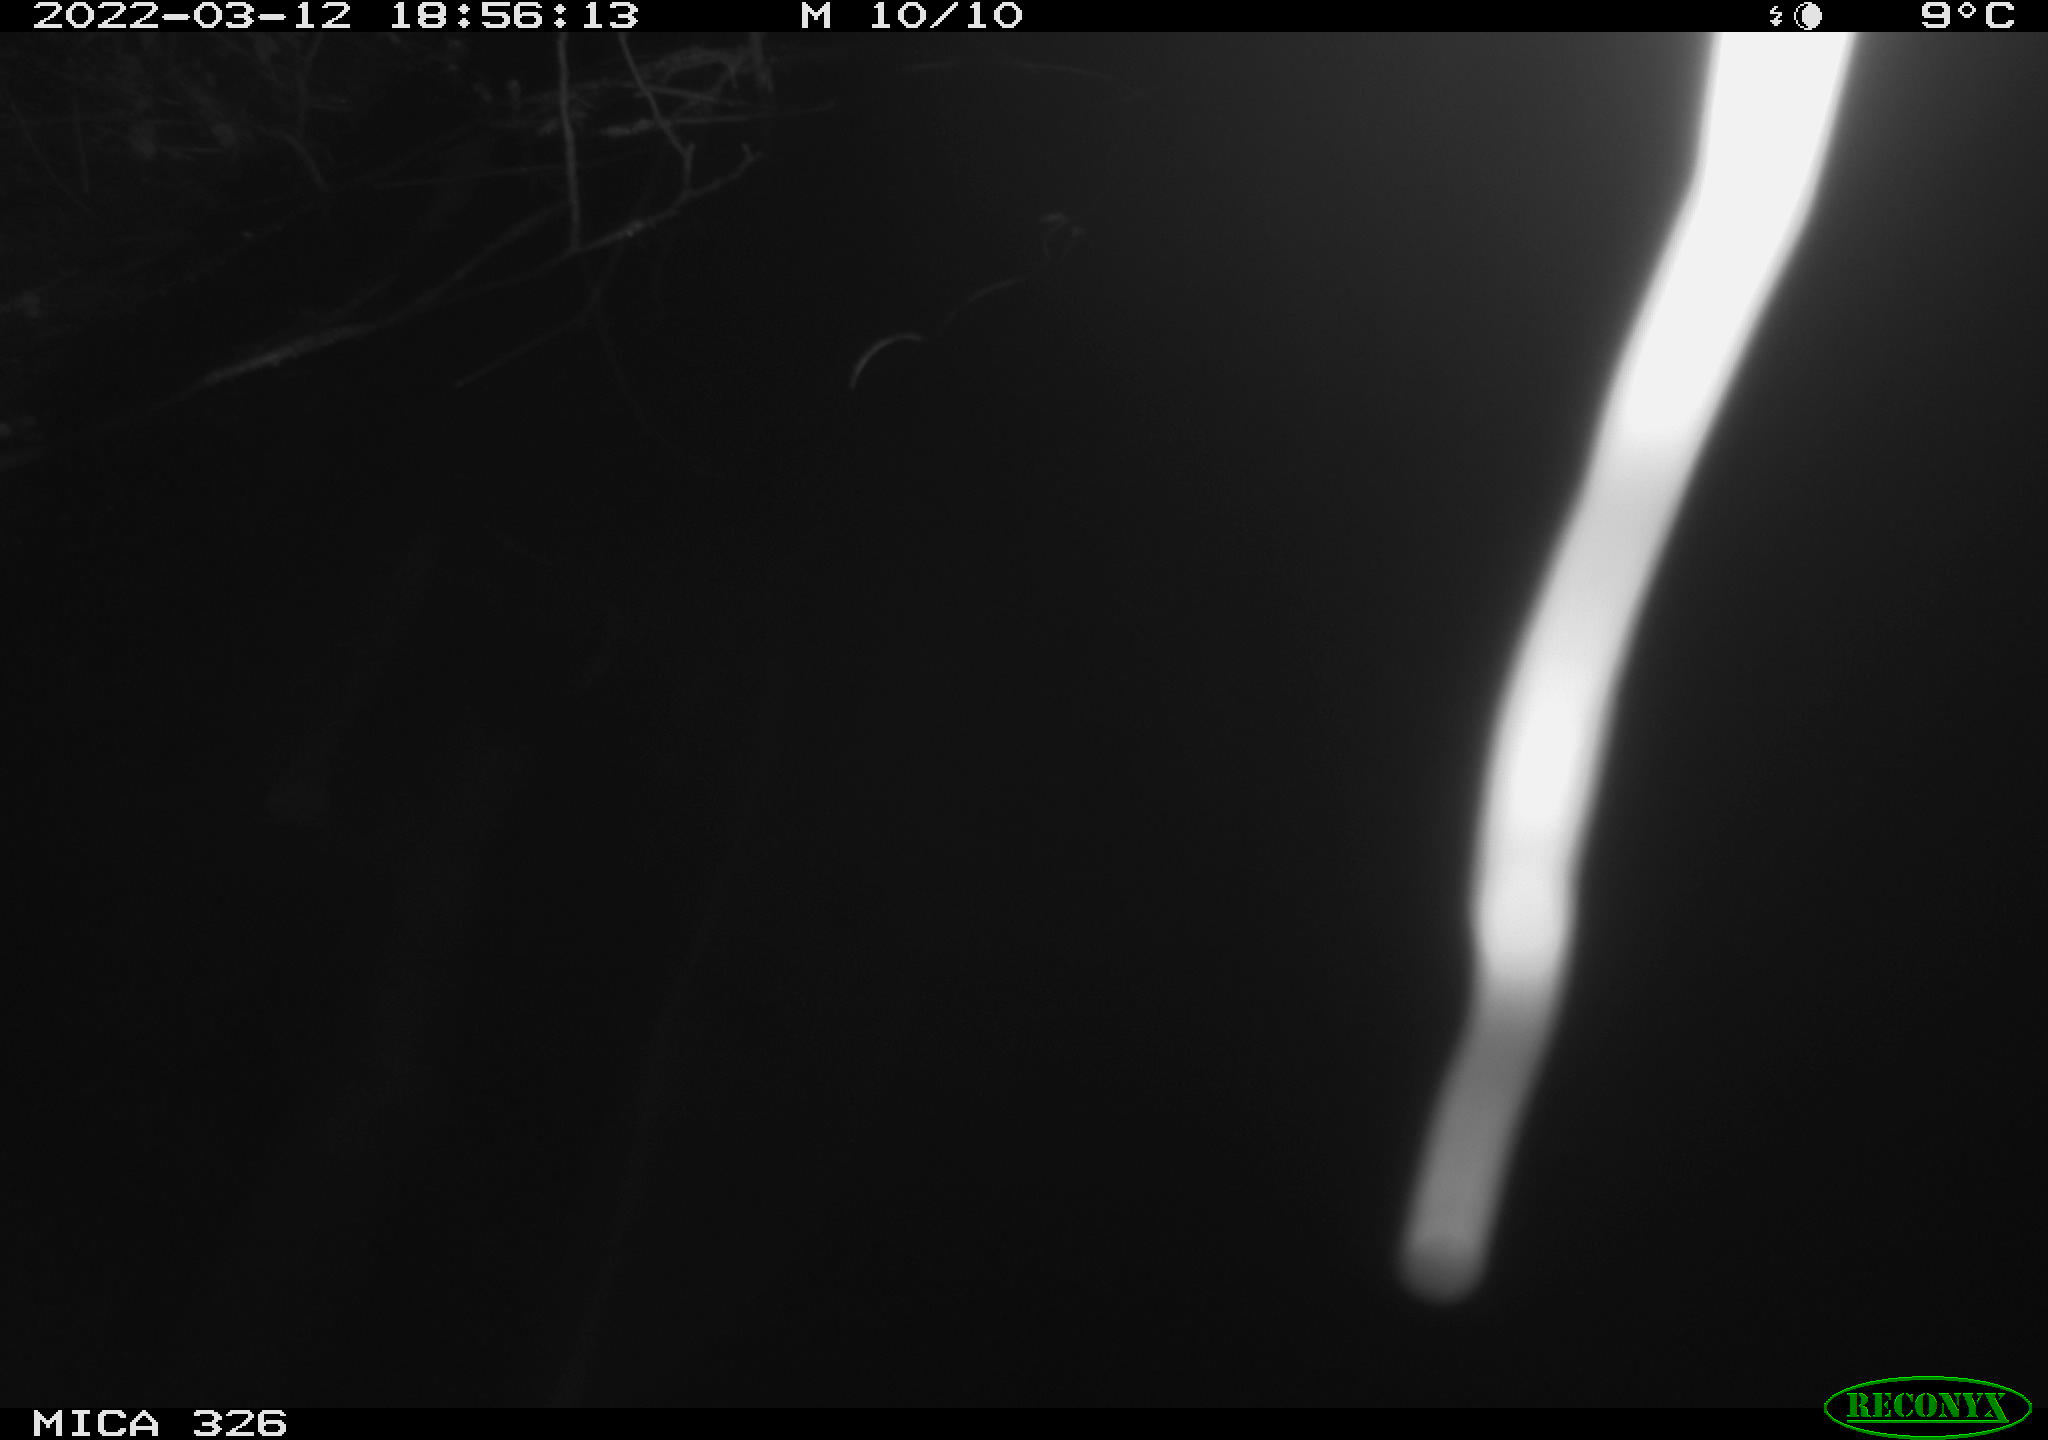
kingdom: Animalia
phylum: Chordata
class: Mammalia
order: Rodentia
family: Cricetidae
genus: Ondatra
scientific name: Ondatra zibethicus
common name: Muskrat
